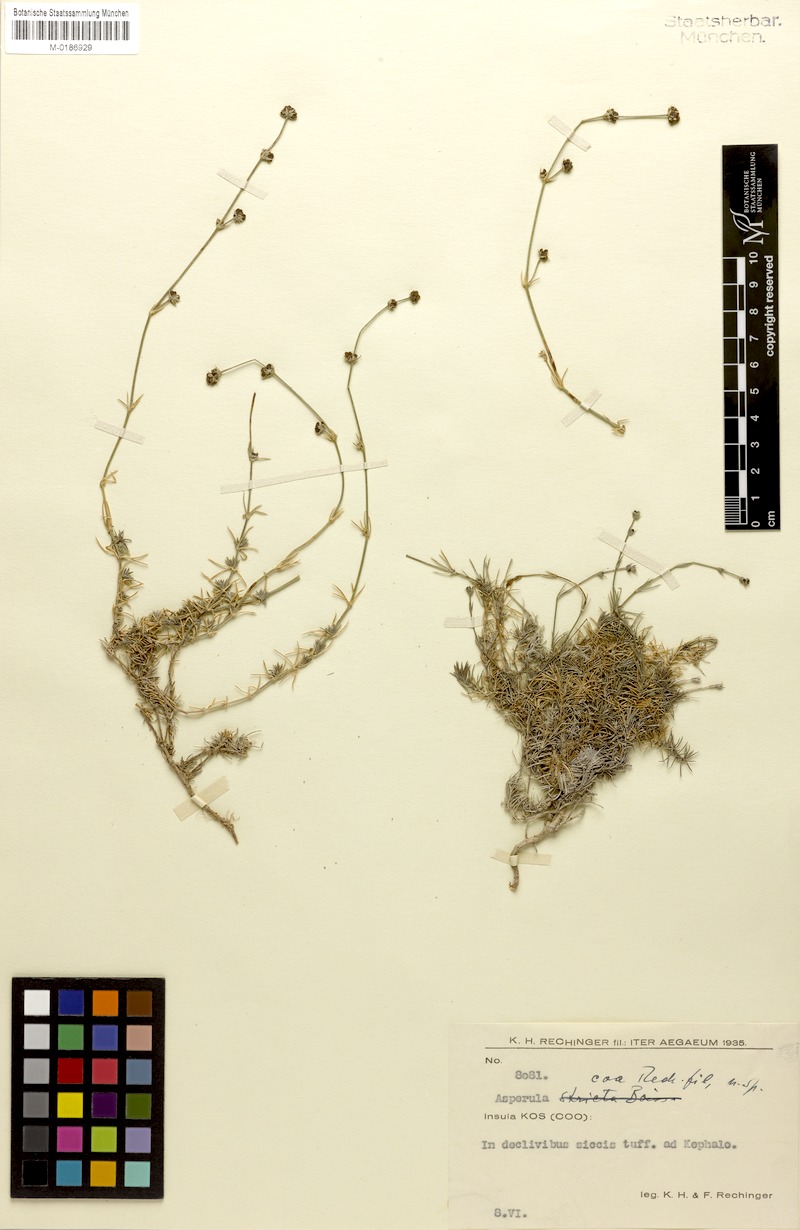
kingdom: Plantae
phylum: Tracheophyta
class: Magnoliopsida
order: Gentianales
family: Rubiaceae
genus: Cynanchica
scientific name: Cynanchica lilaciflora
